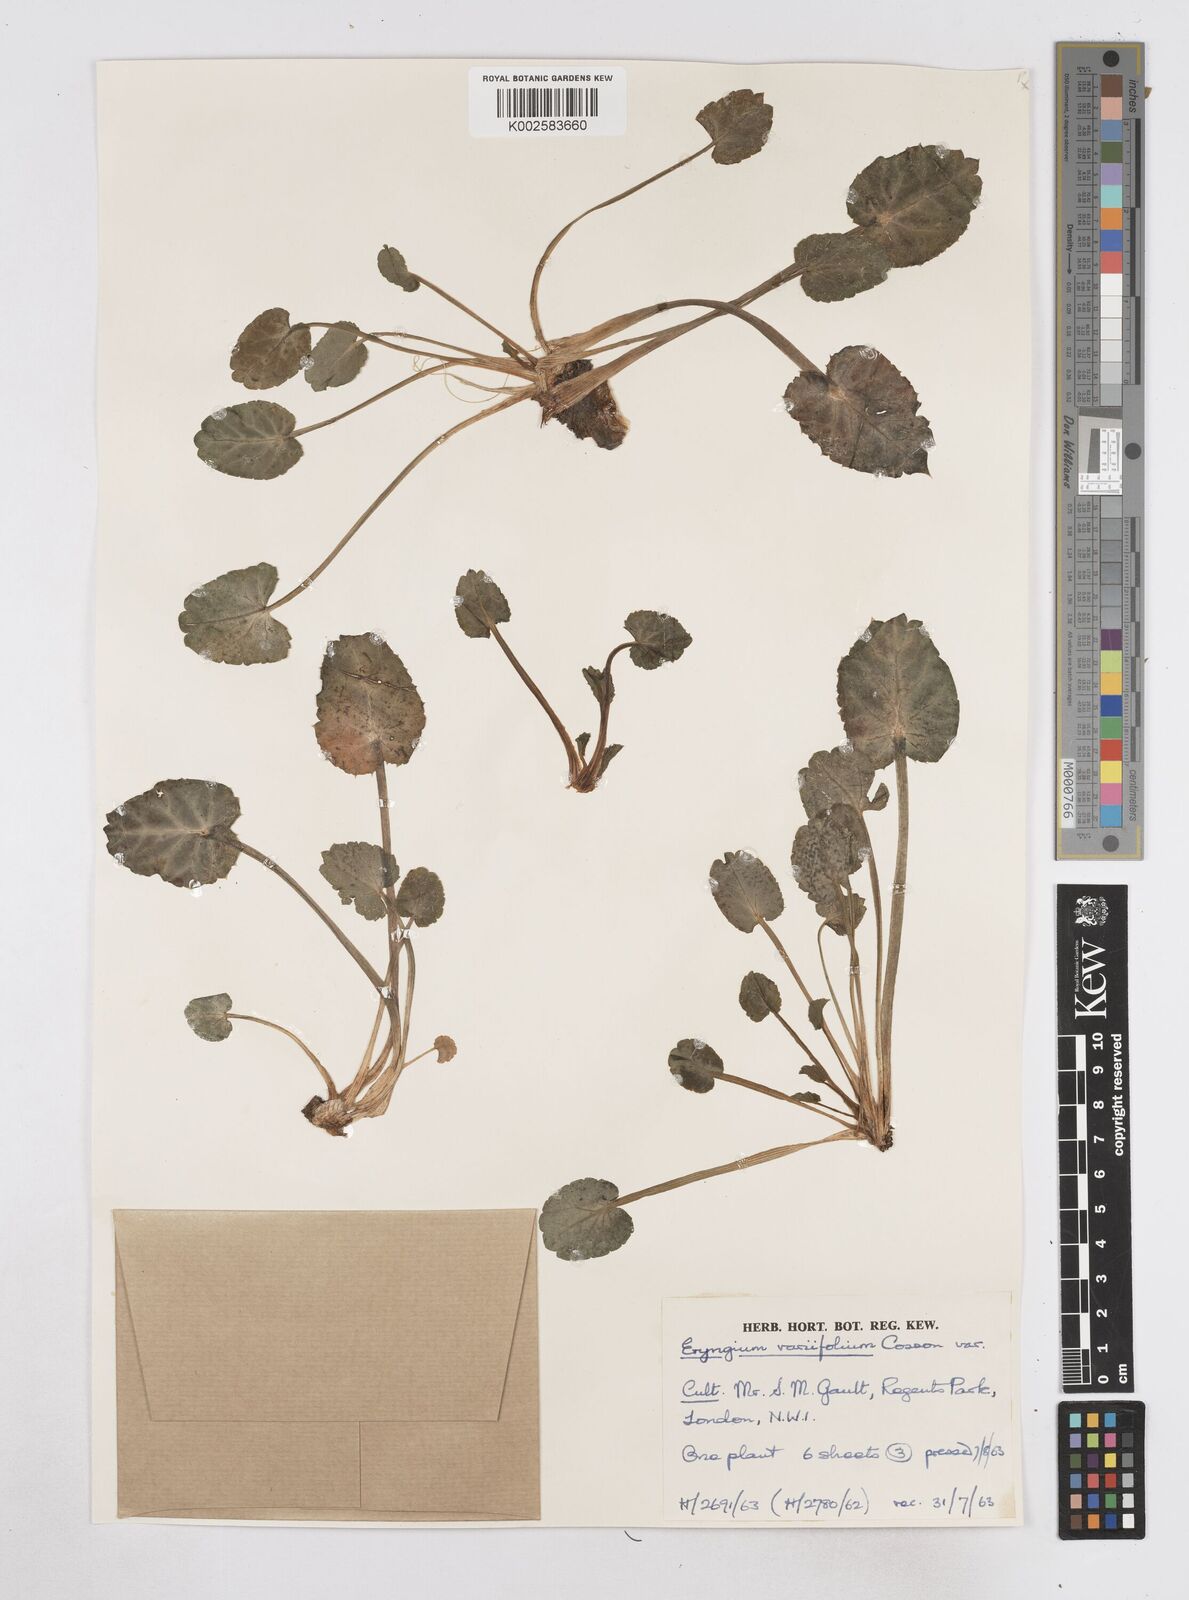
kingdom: Plantae
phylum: Tracheophyta
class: Magnoliopsida
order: Apiales
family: Apiaceae
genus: Eryngium
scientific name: Eryngium variifolium
